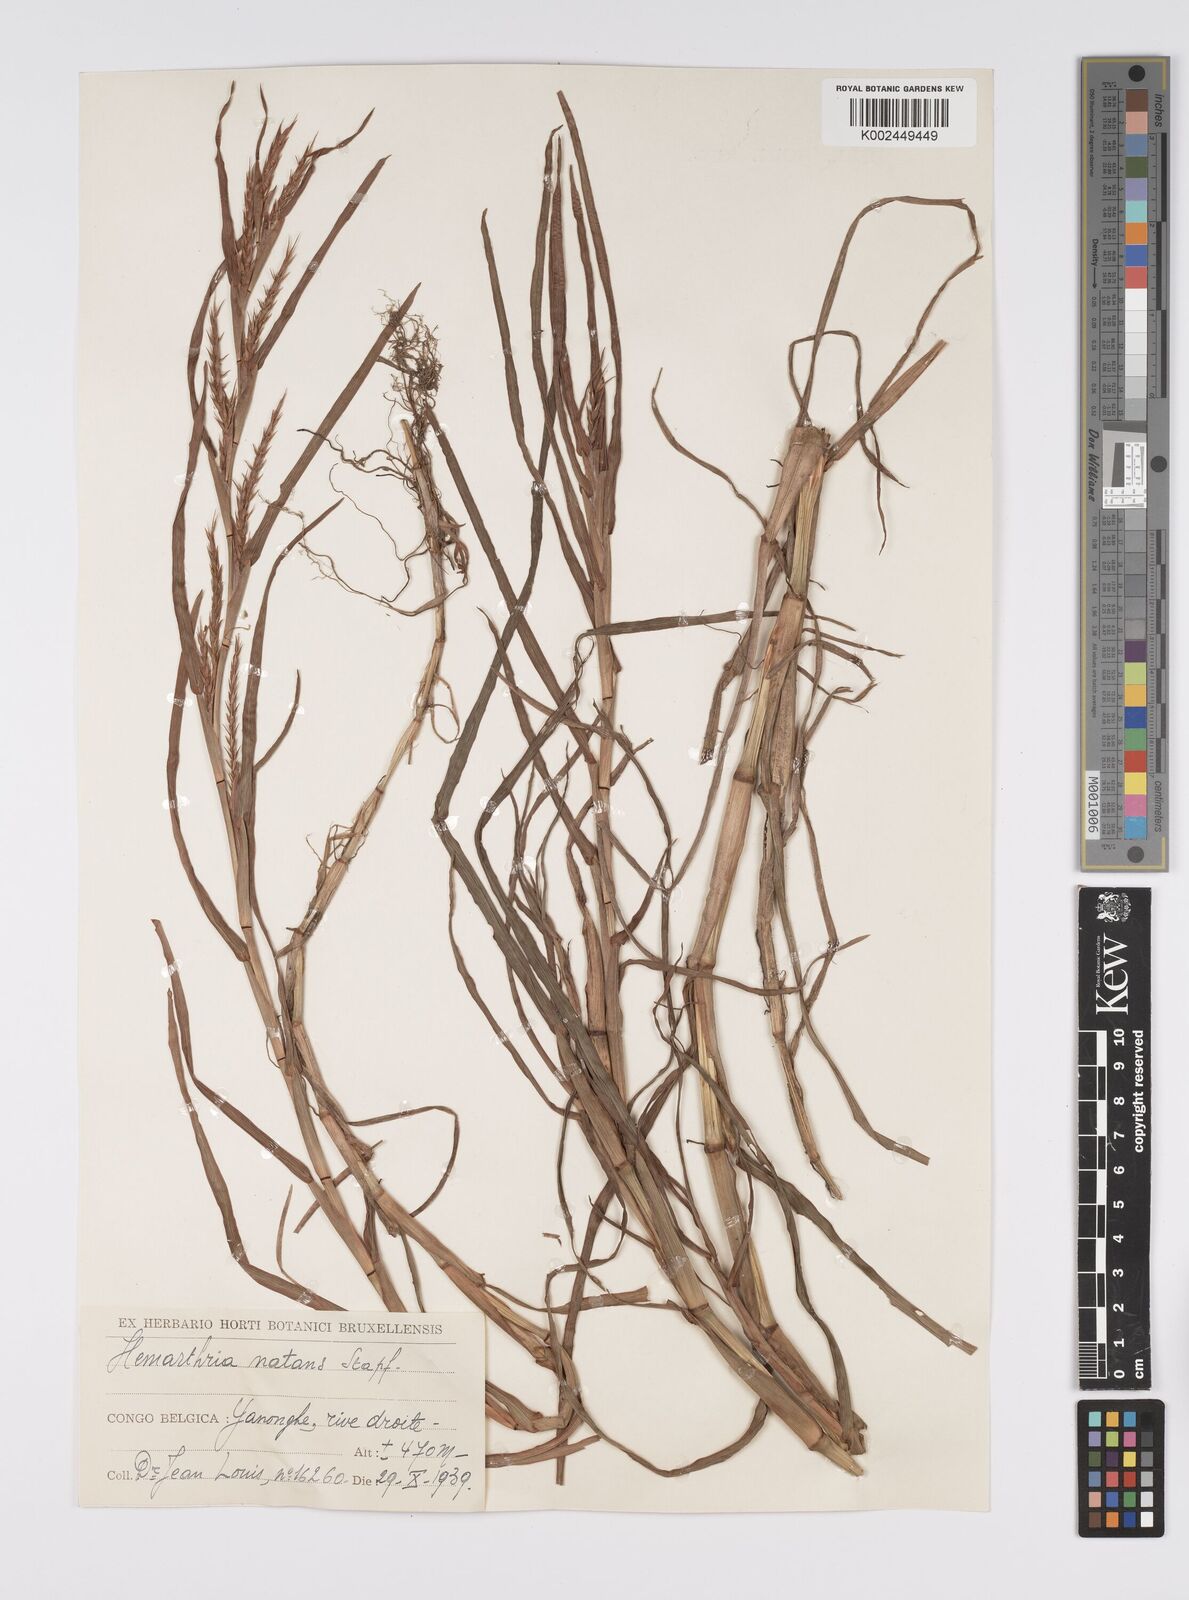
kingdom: Plantae
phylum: Tracheophyta
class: Liliopsida
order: Poales
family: Poaceae
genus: Hemarthria
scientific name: Hemarthria natans
